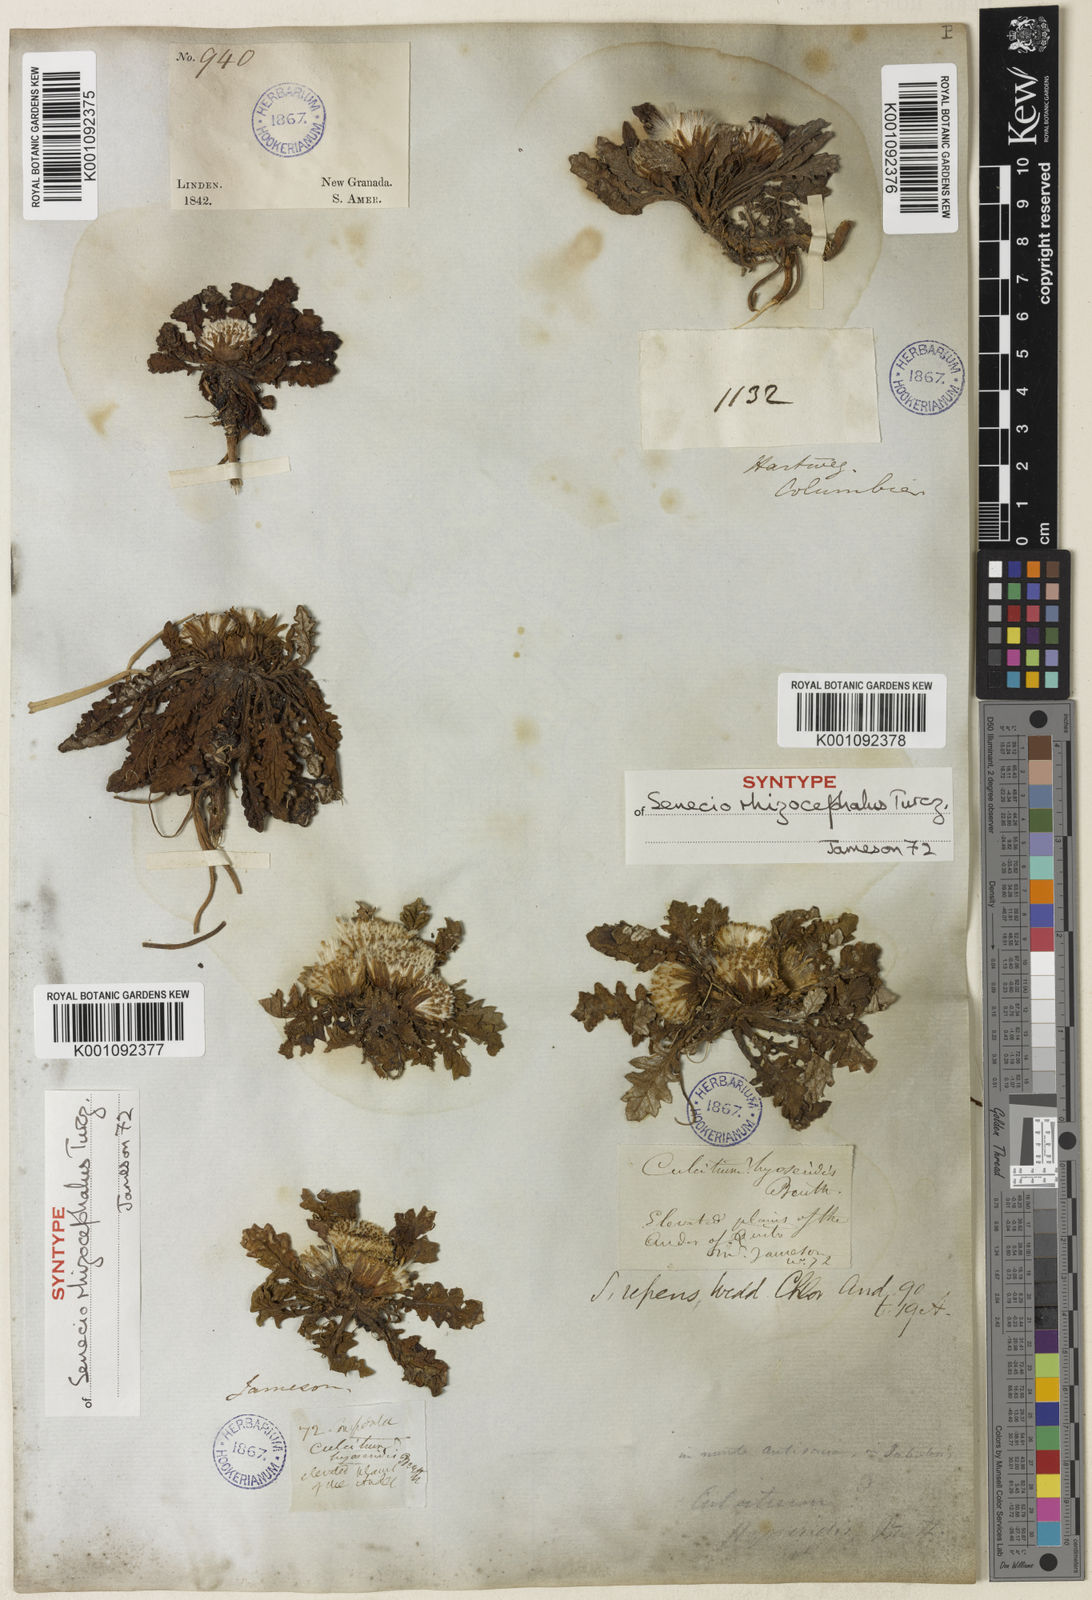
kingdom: Plantae
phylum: Tracheophyta
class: Magnoliopsida
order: Asterales
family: Asteraceae
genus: Senecio
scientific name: Senecio
